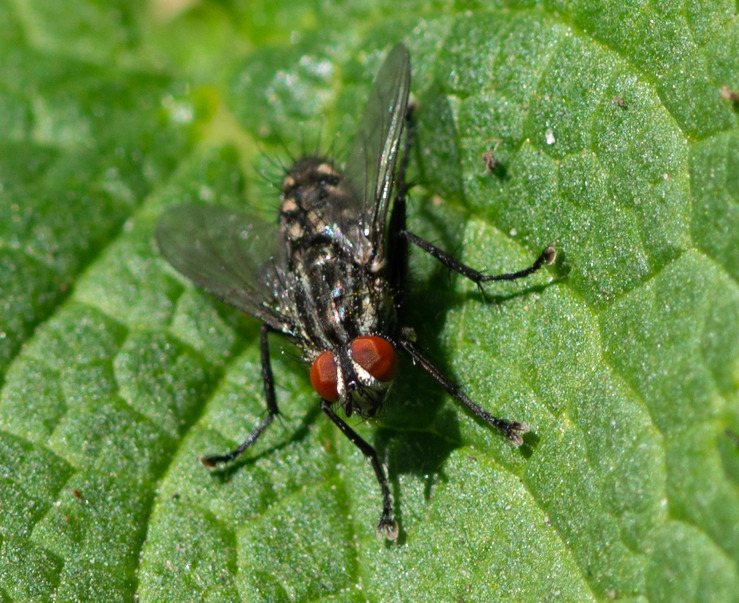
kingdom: Animalia
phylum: Arthropoda
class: Insecta
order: Diptera
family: Sarcophagidae
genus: Sarcophaga
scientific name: Sarcophaga
